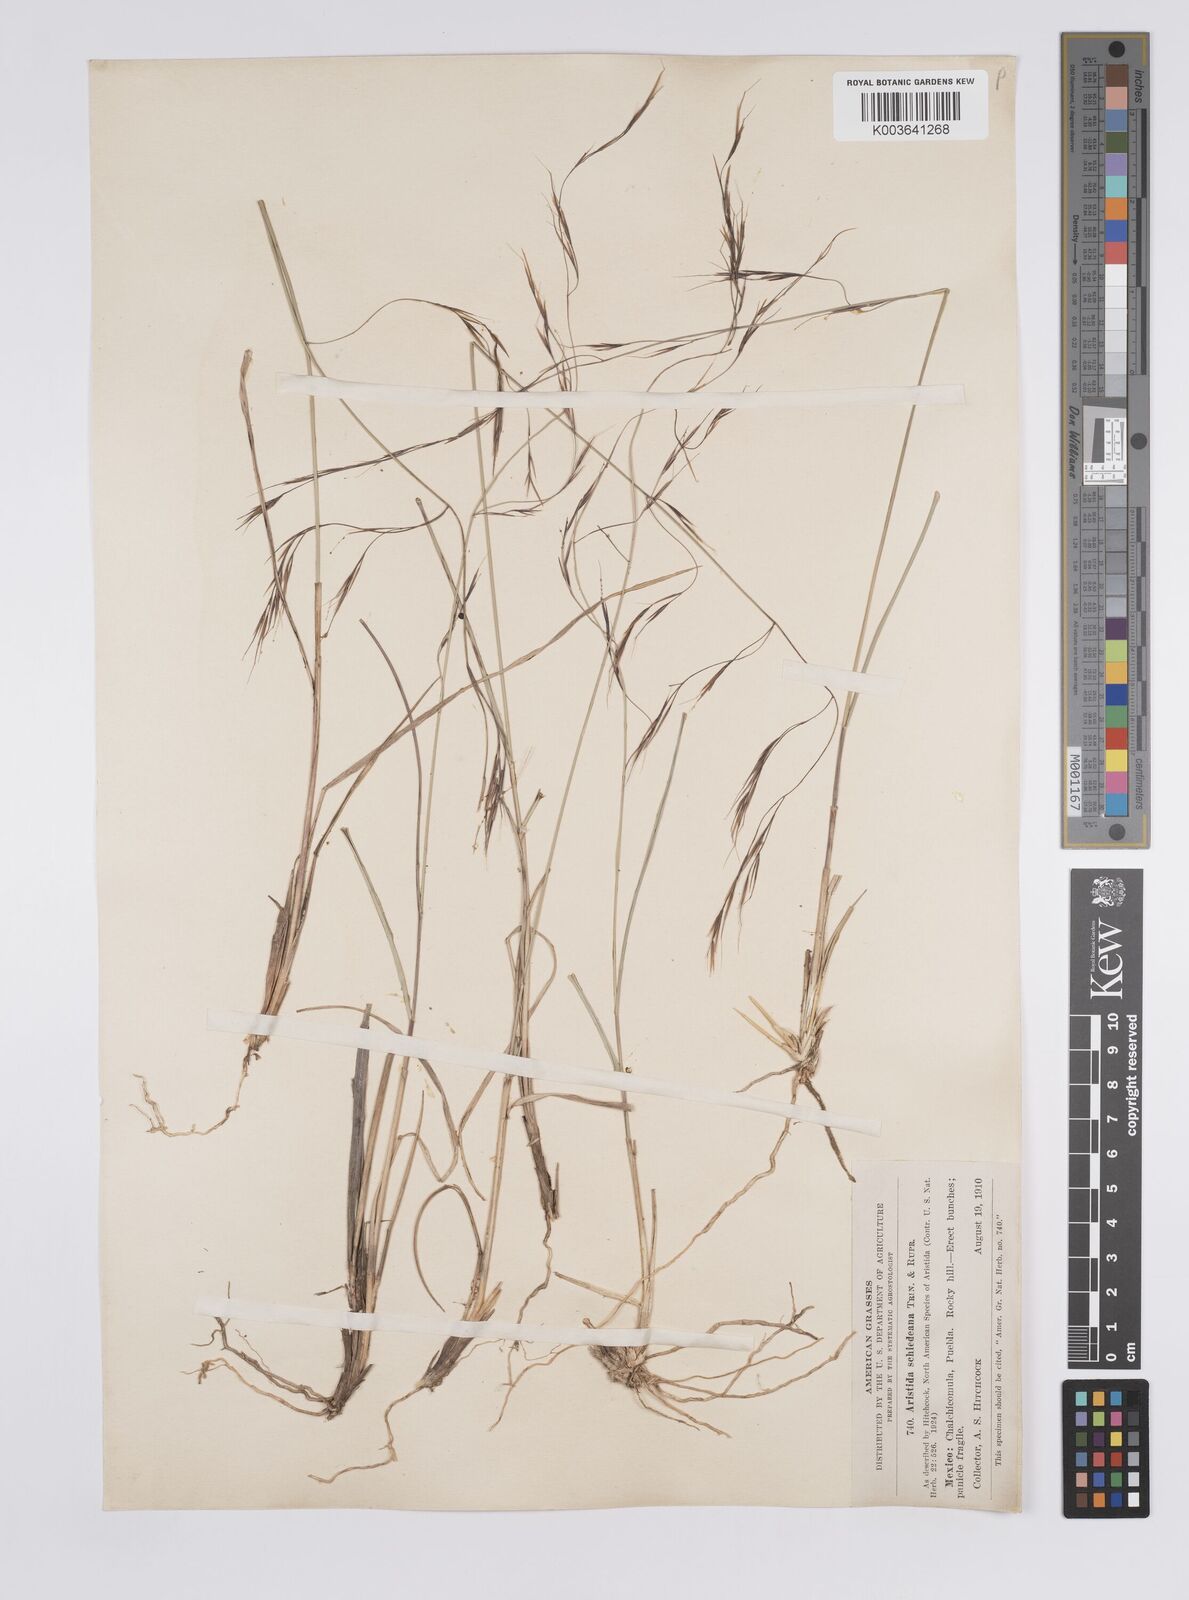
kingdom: Plantae
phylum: Tracheophyta
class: Liliopsida
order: Poales
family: Poaceae
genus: Aristida
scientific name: Aristida schiedeana
